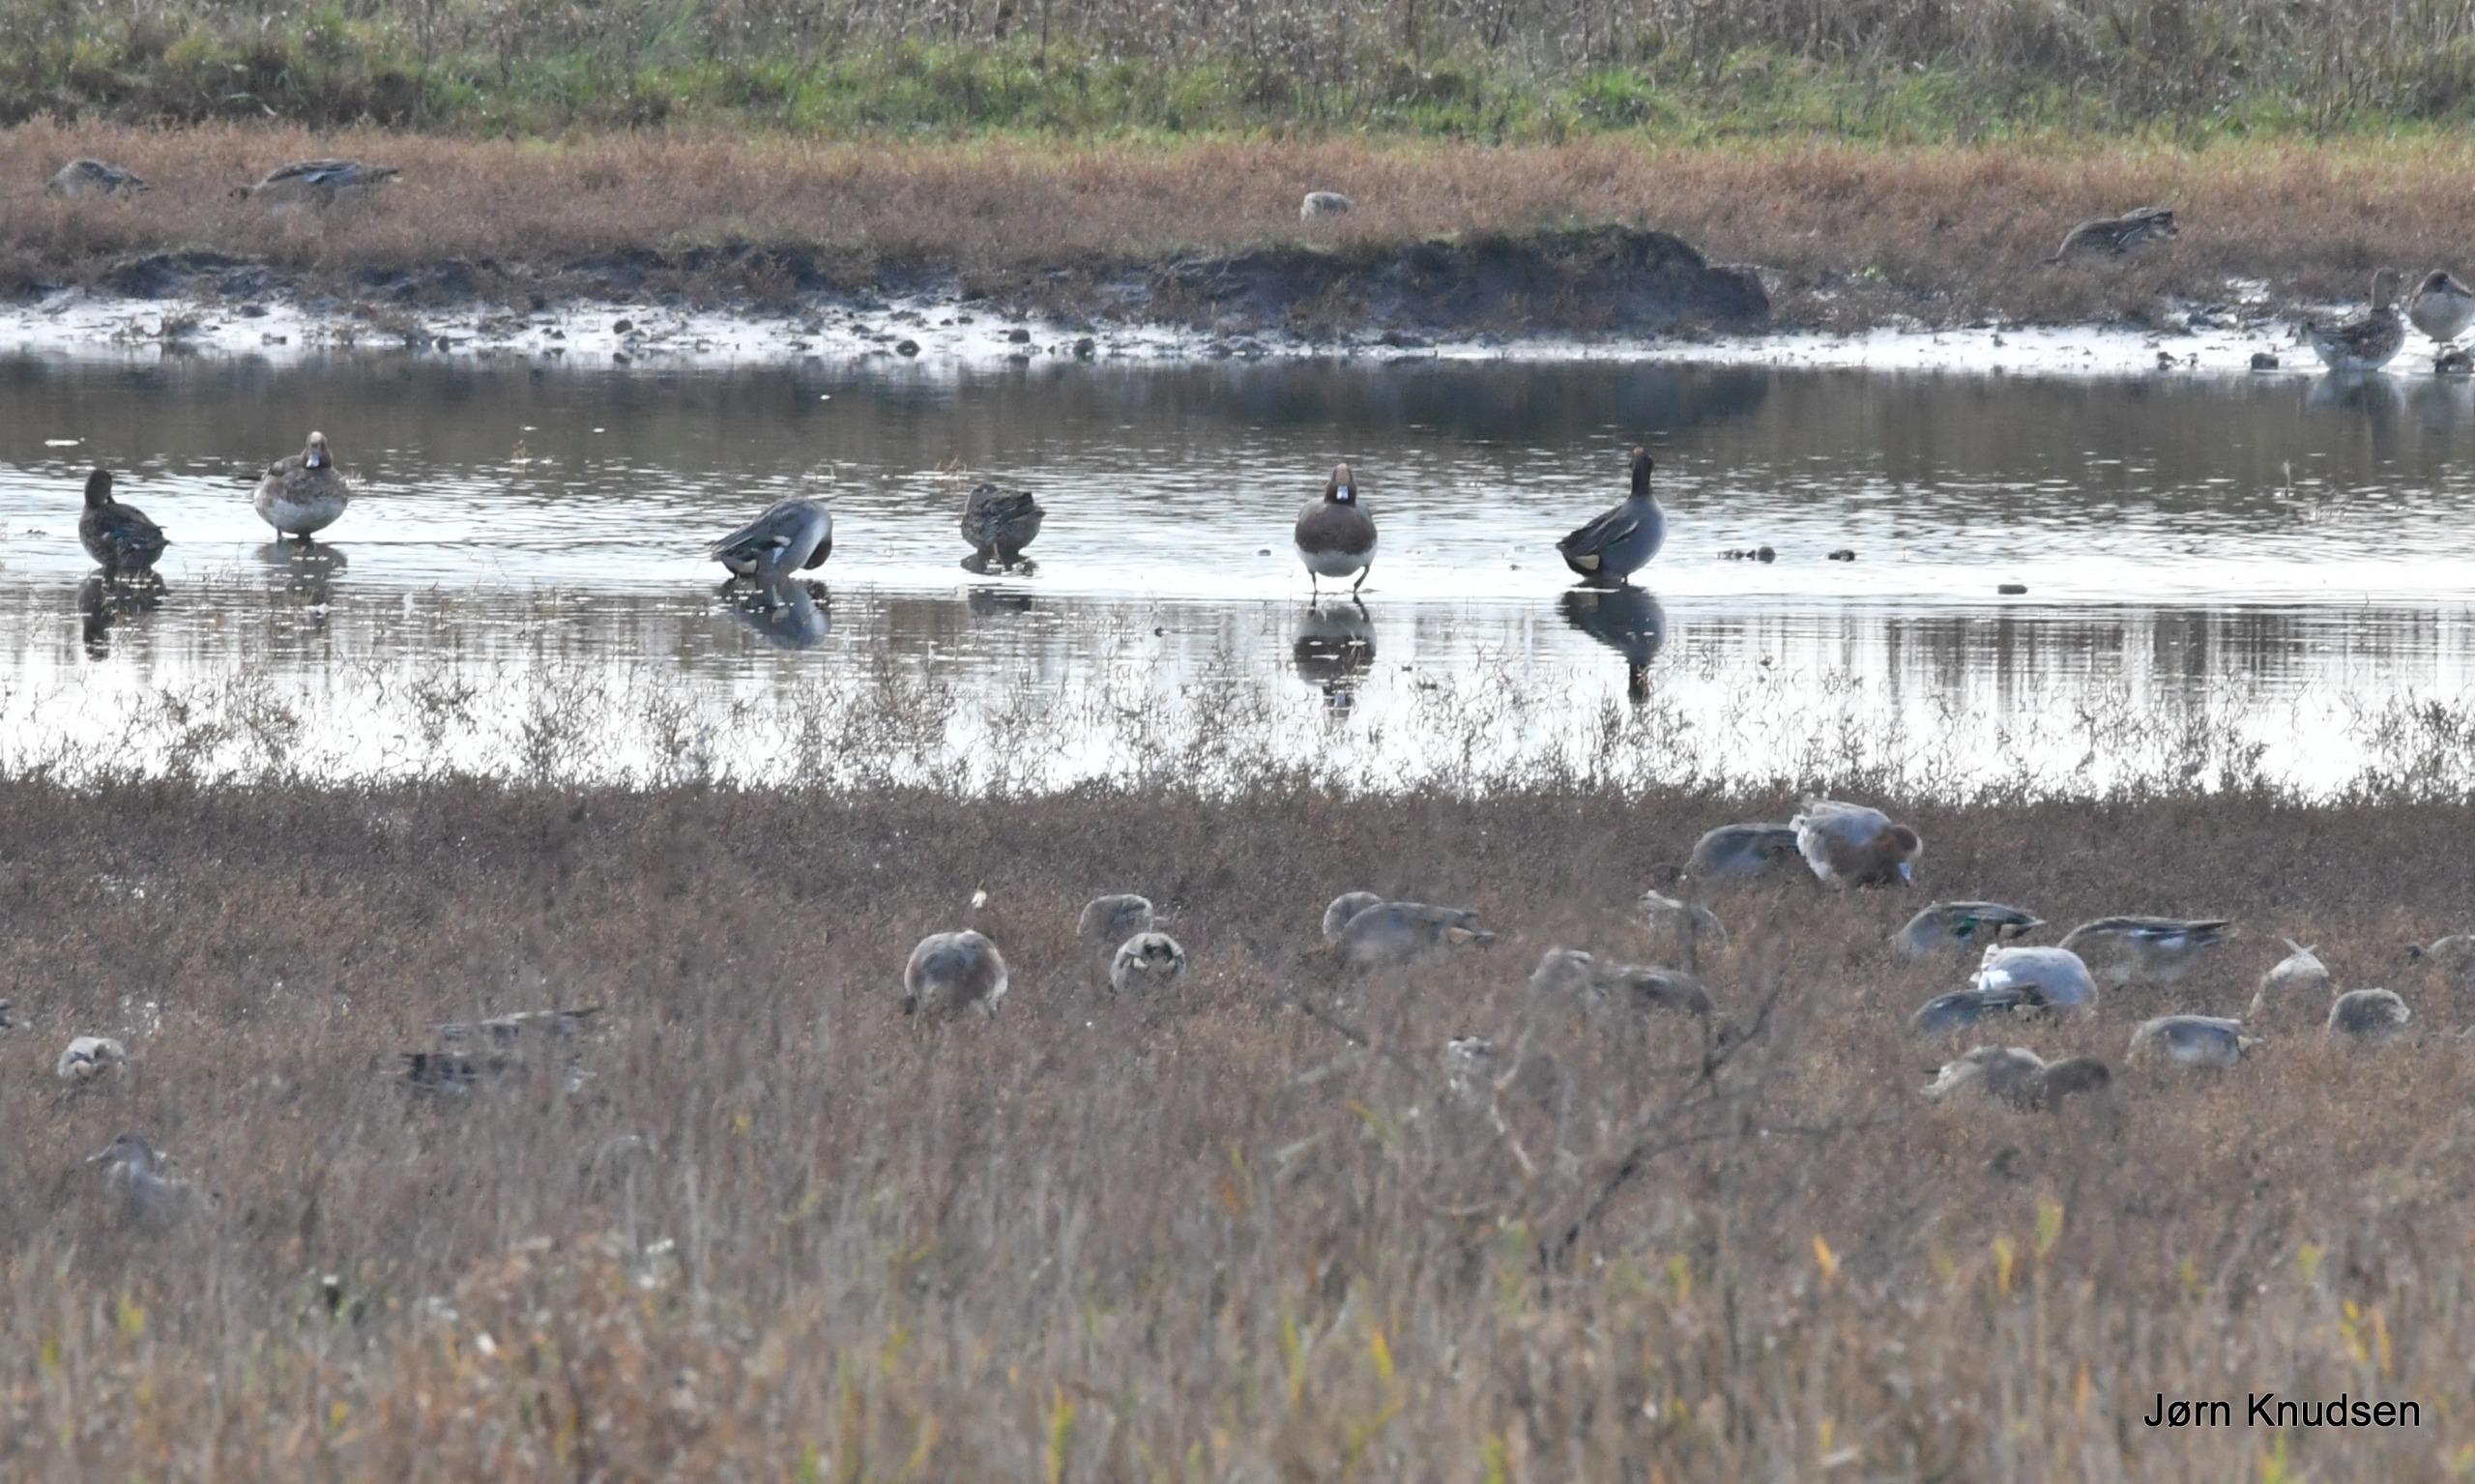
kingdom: Animalia
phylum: Chordata
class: Aves
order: Anseriformes
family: Anatidae
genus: Mareca
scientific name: Mareca penelope
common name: Pibeand
